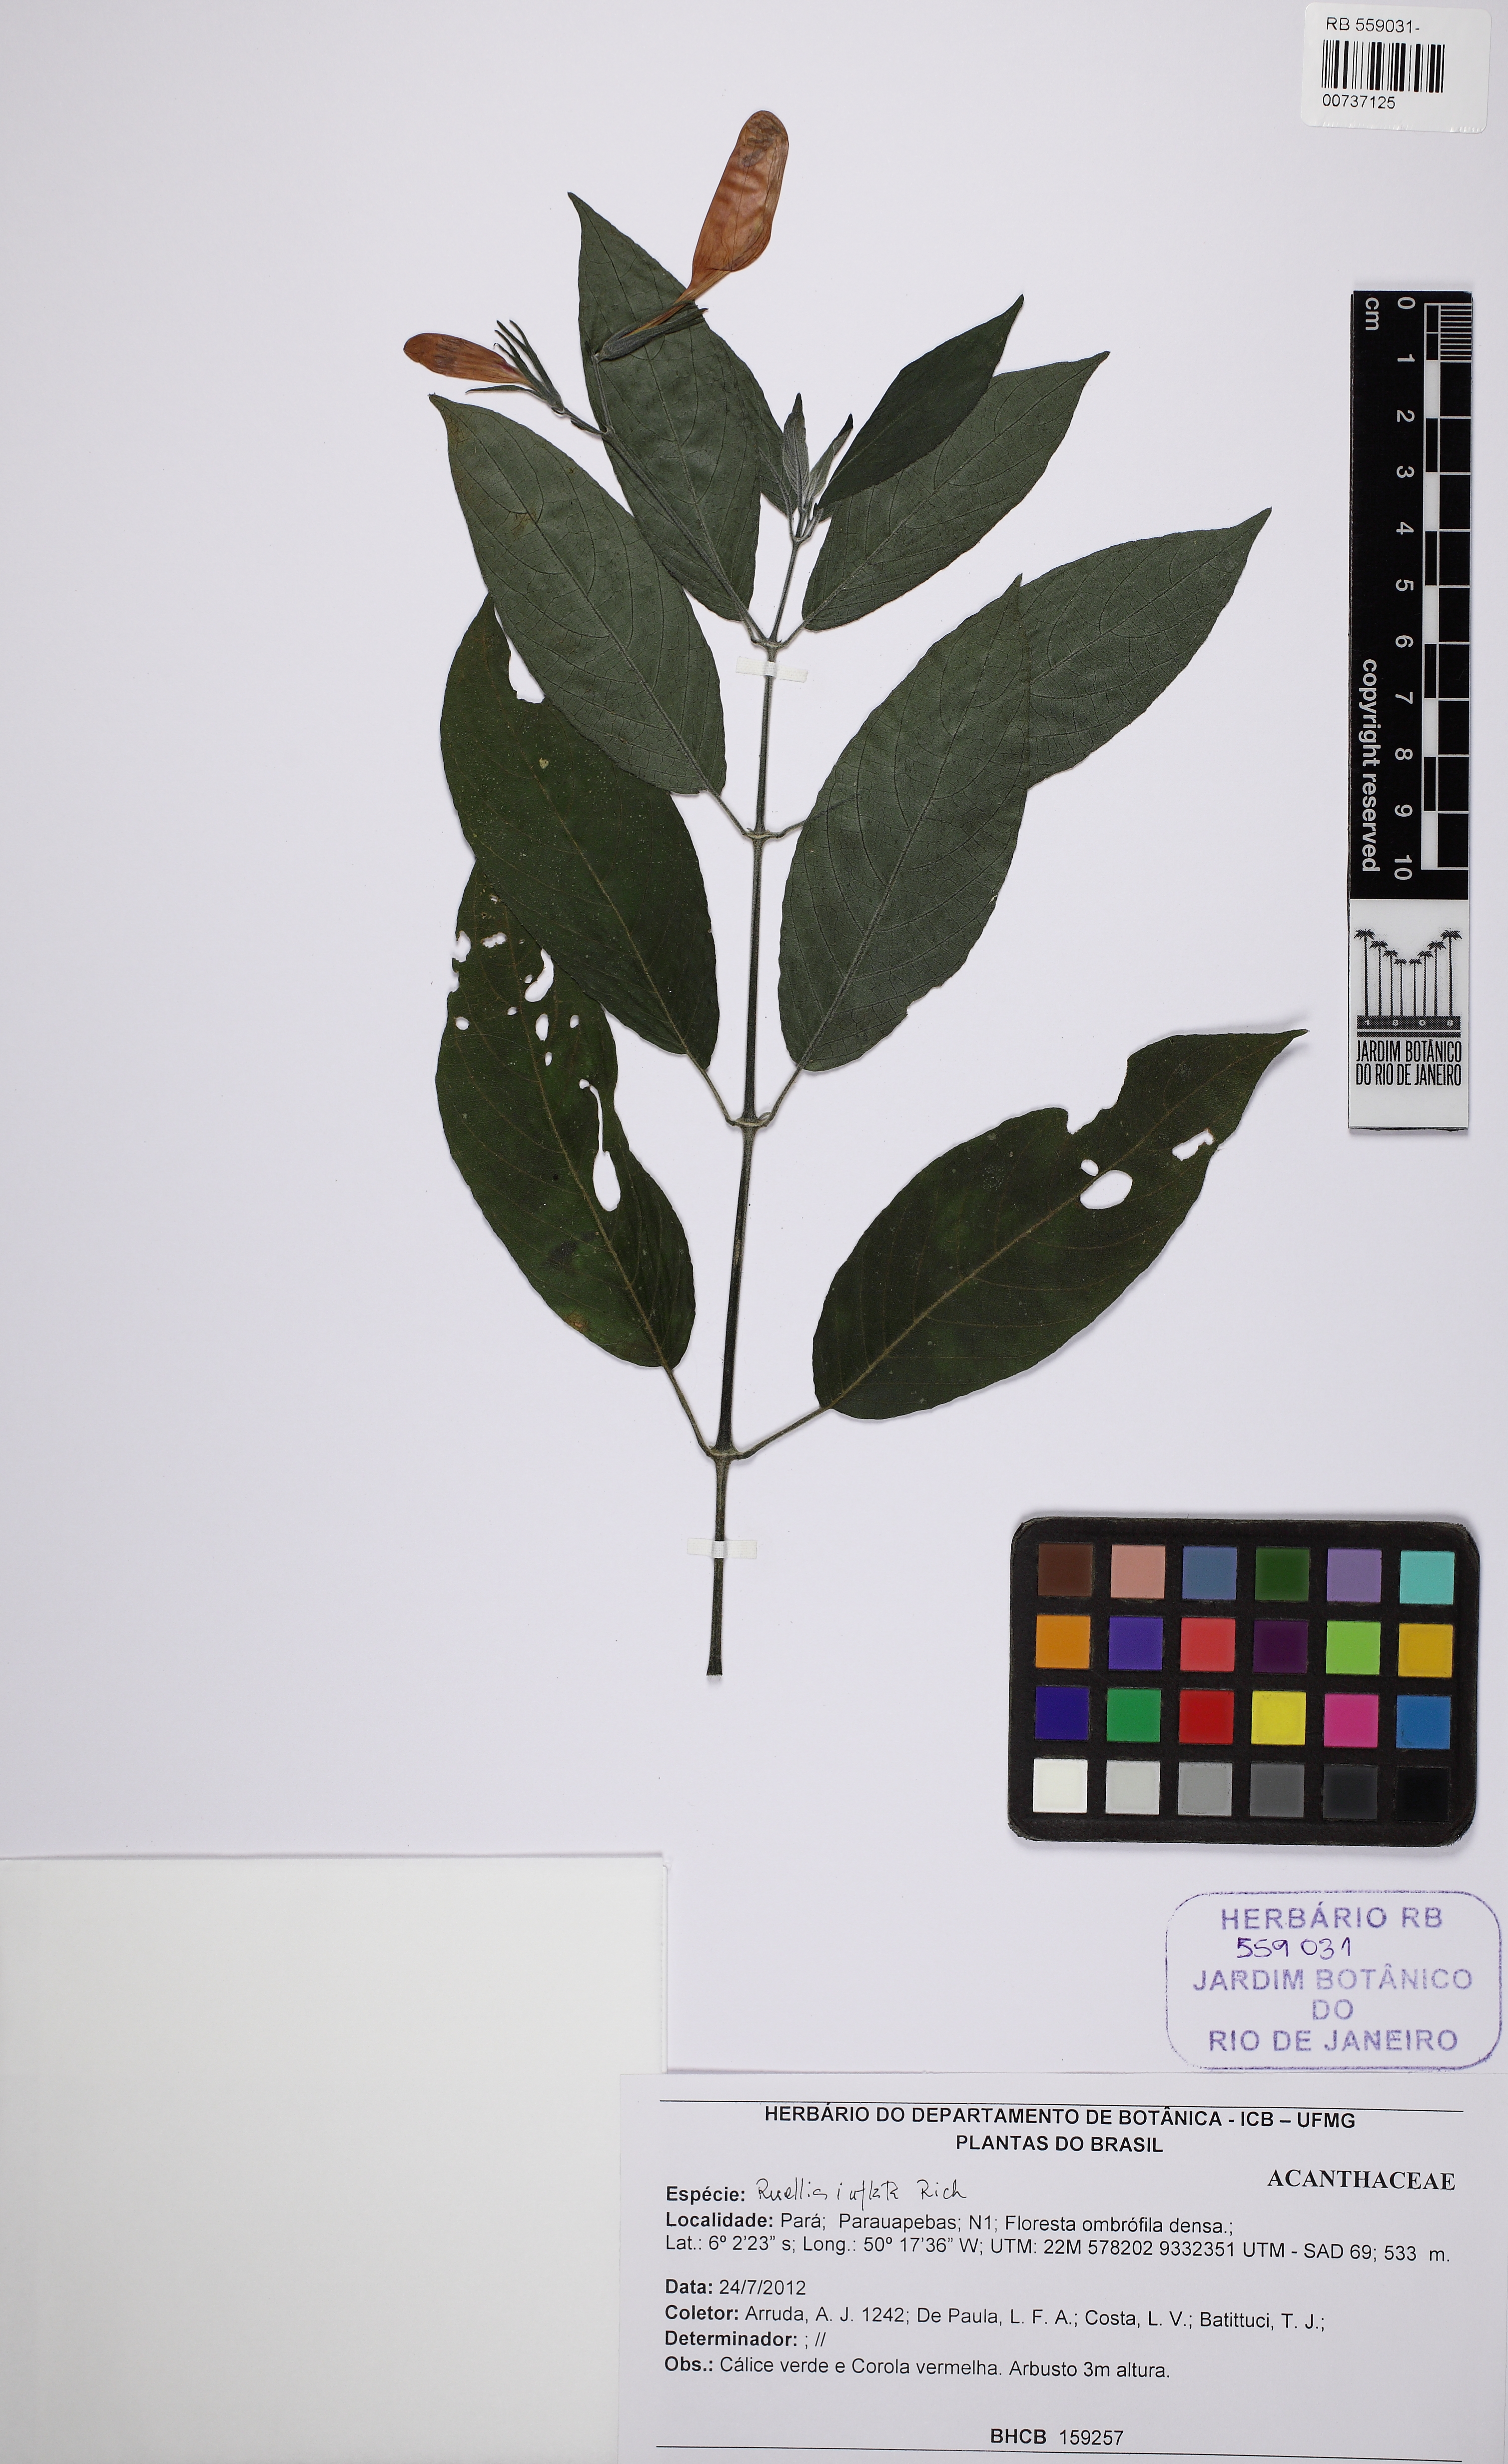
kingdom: Plantae
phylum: Tracheophyta
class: Magnoliopsida
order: Lamiales
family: Acanthaceae
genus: Ruellia
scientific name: Ruellia inflata
